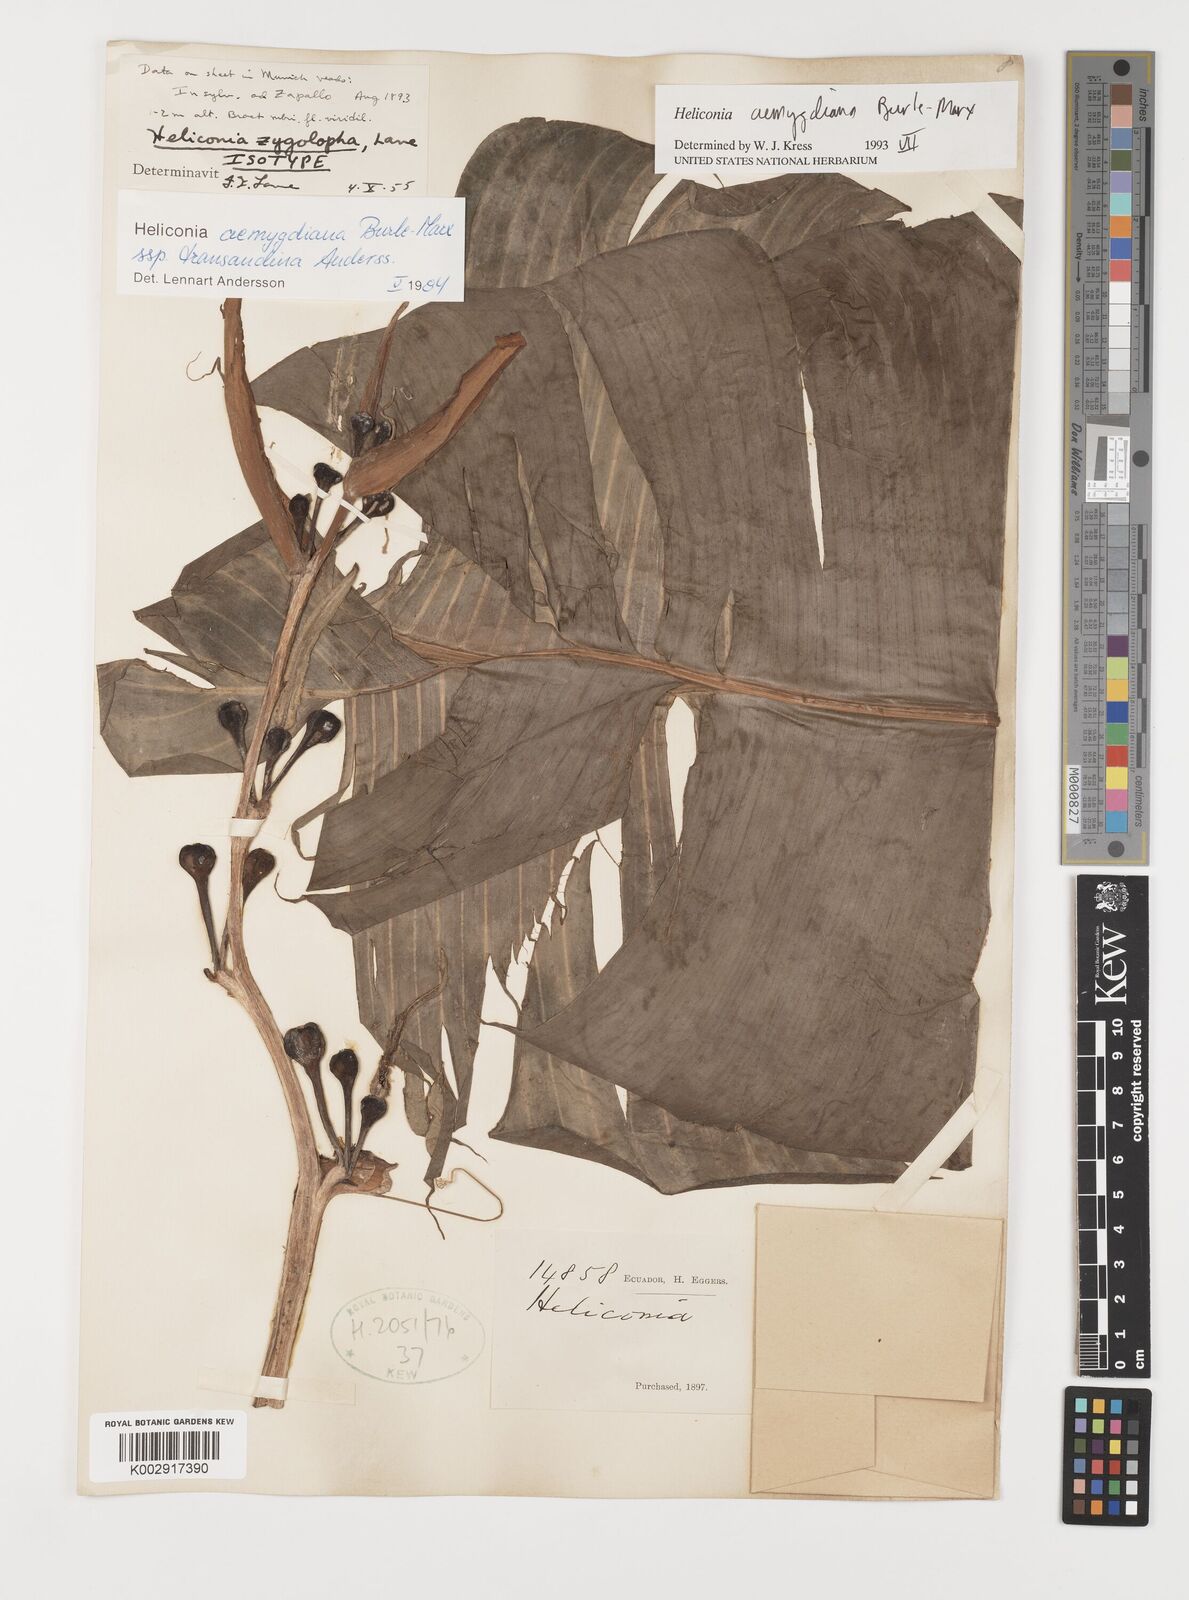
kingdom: Plantae
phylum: Tracheophyta
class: Liliopsida
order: Zingiberales
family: Heliconiaceae
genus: Heliconia
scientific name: Heliconia aemygdiana
